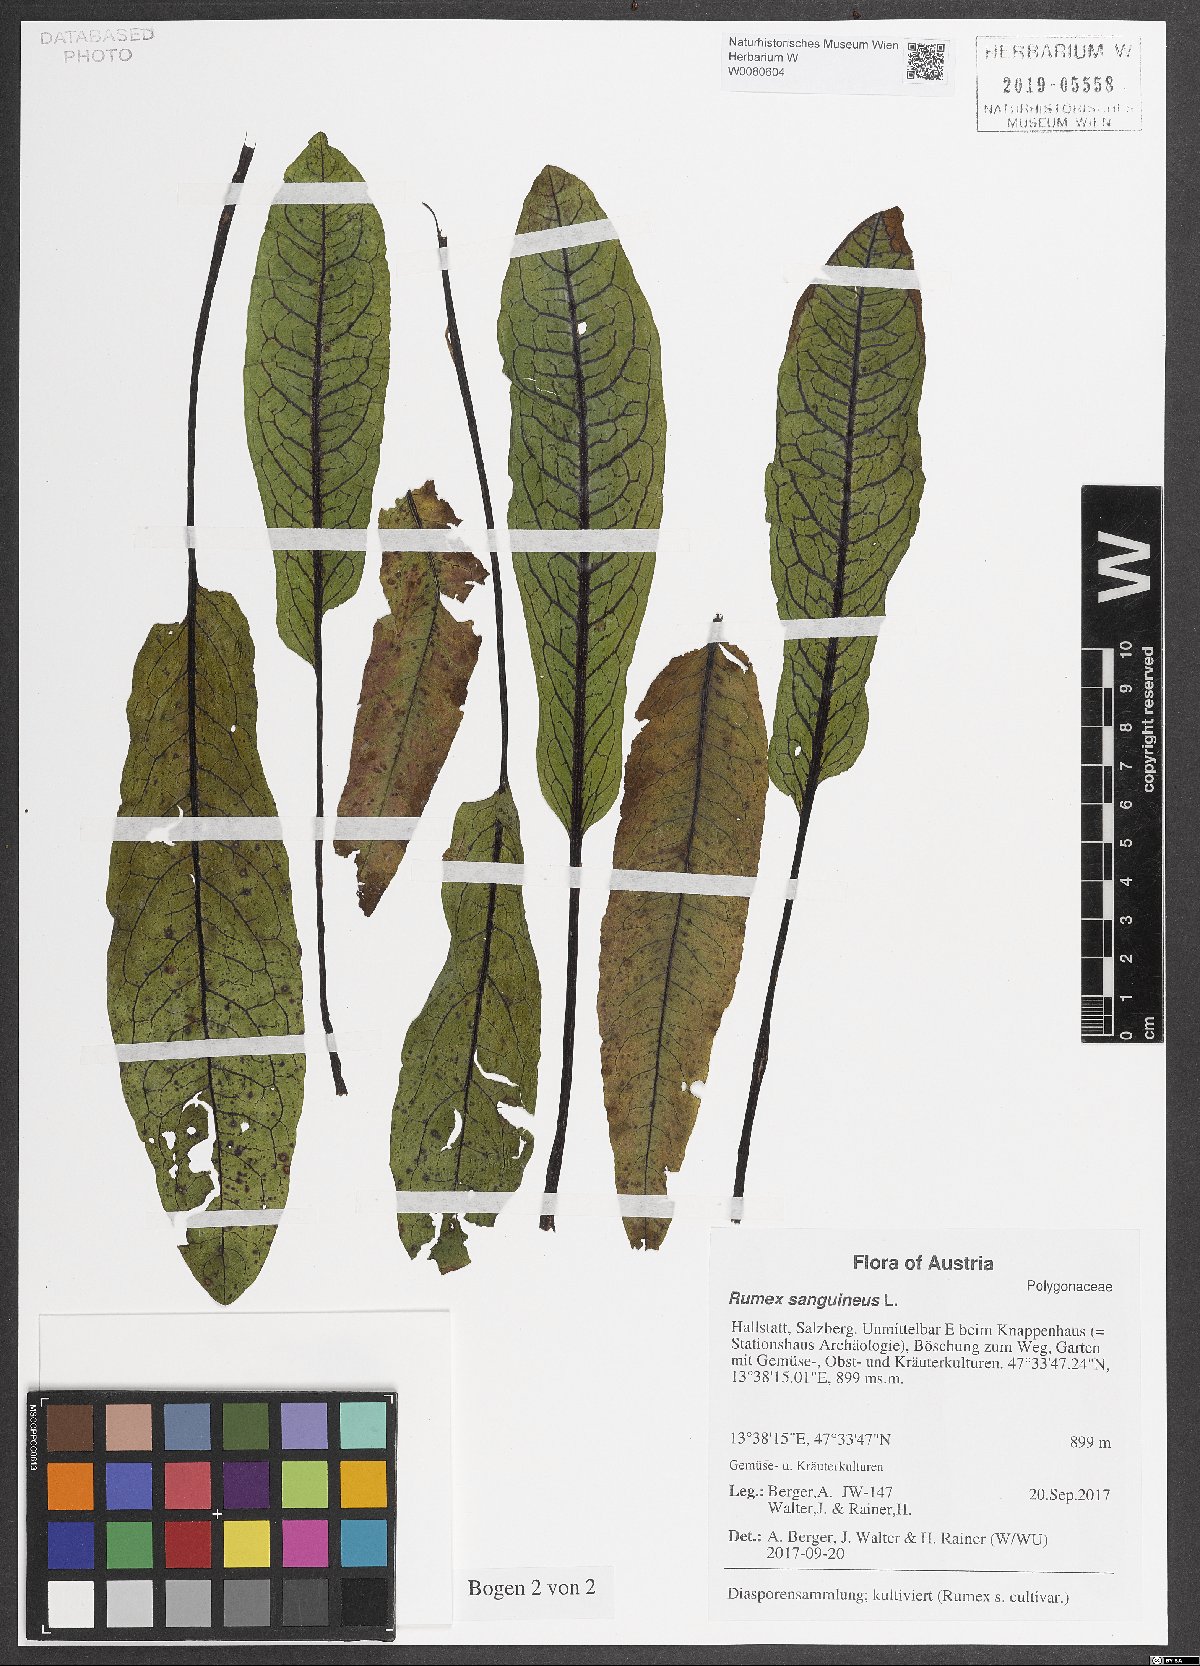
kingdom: Plantae
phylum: Tracheophyta
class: Magnoliopsida
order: Caryophyllales
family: Polygonaceae
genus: Rumex
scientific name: Rumex sanguineus
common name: Wood dock
